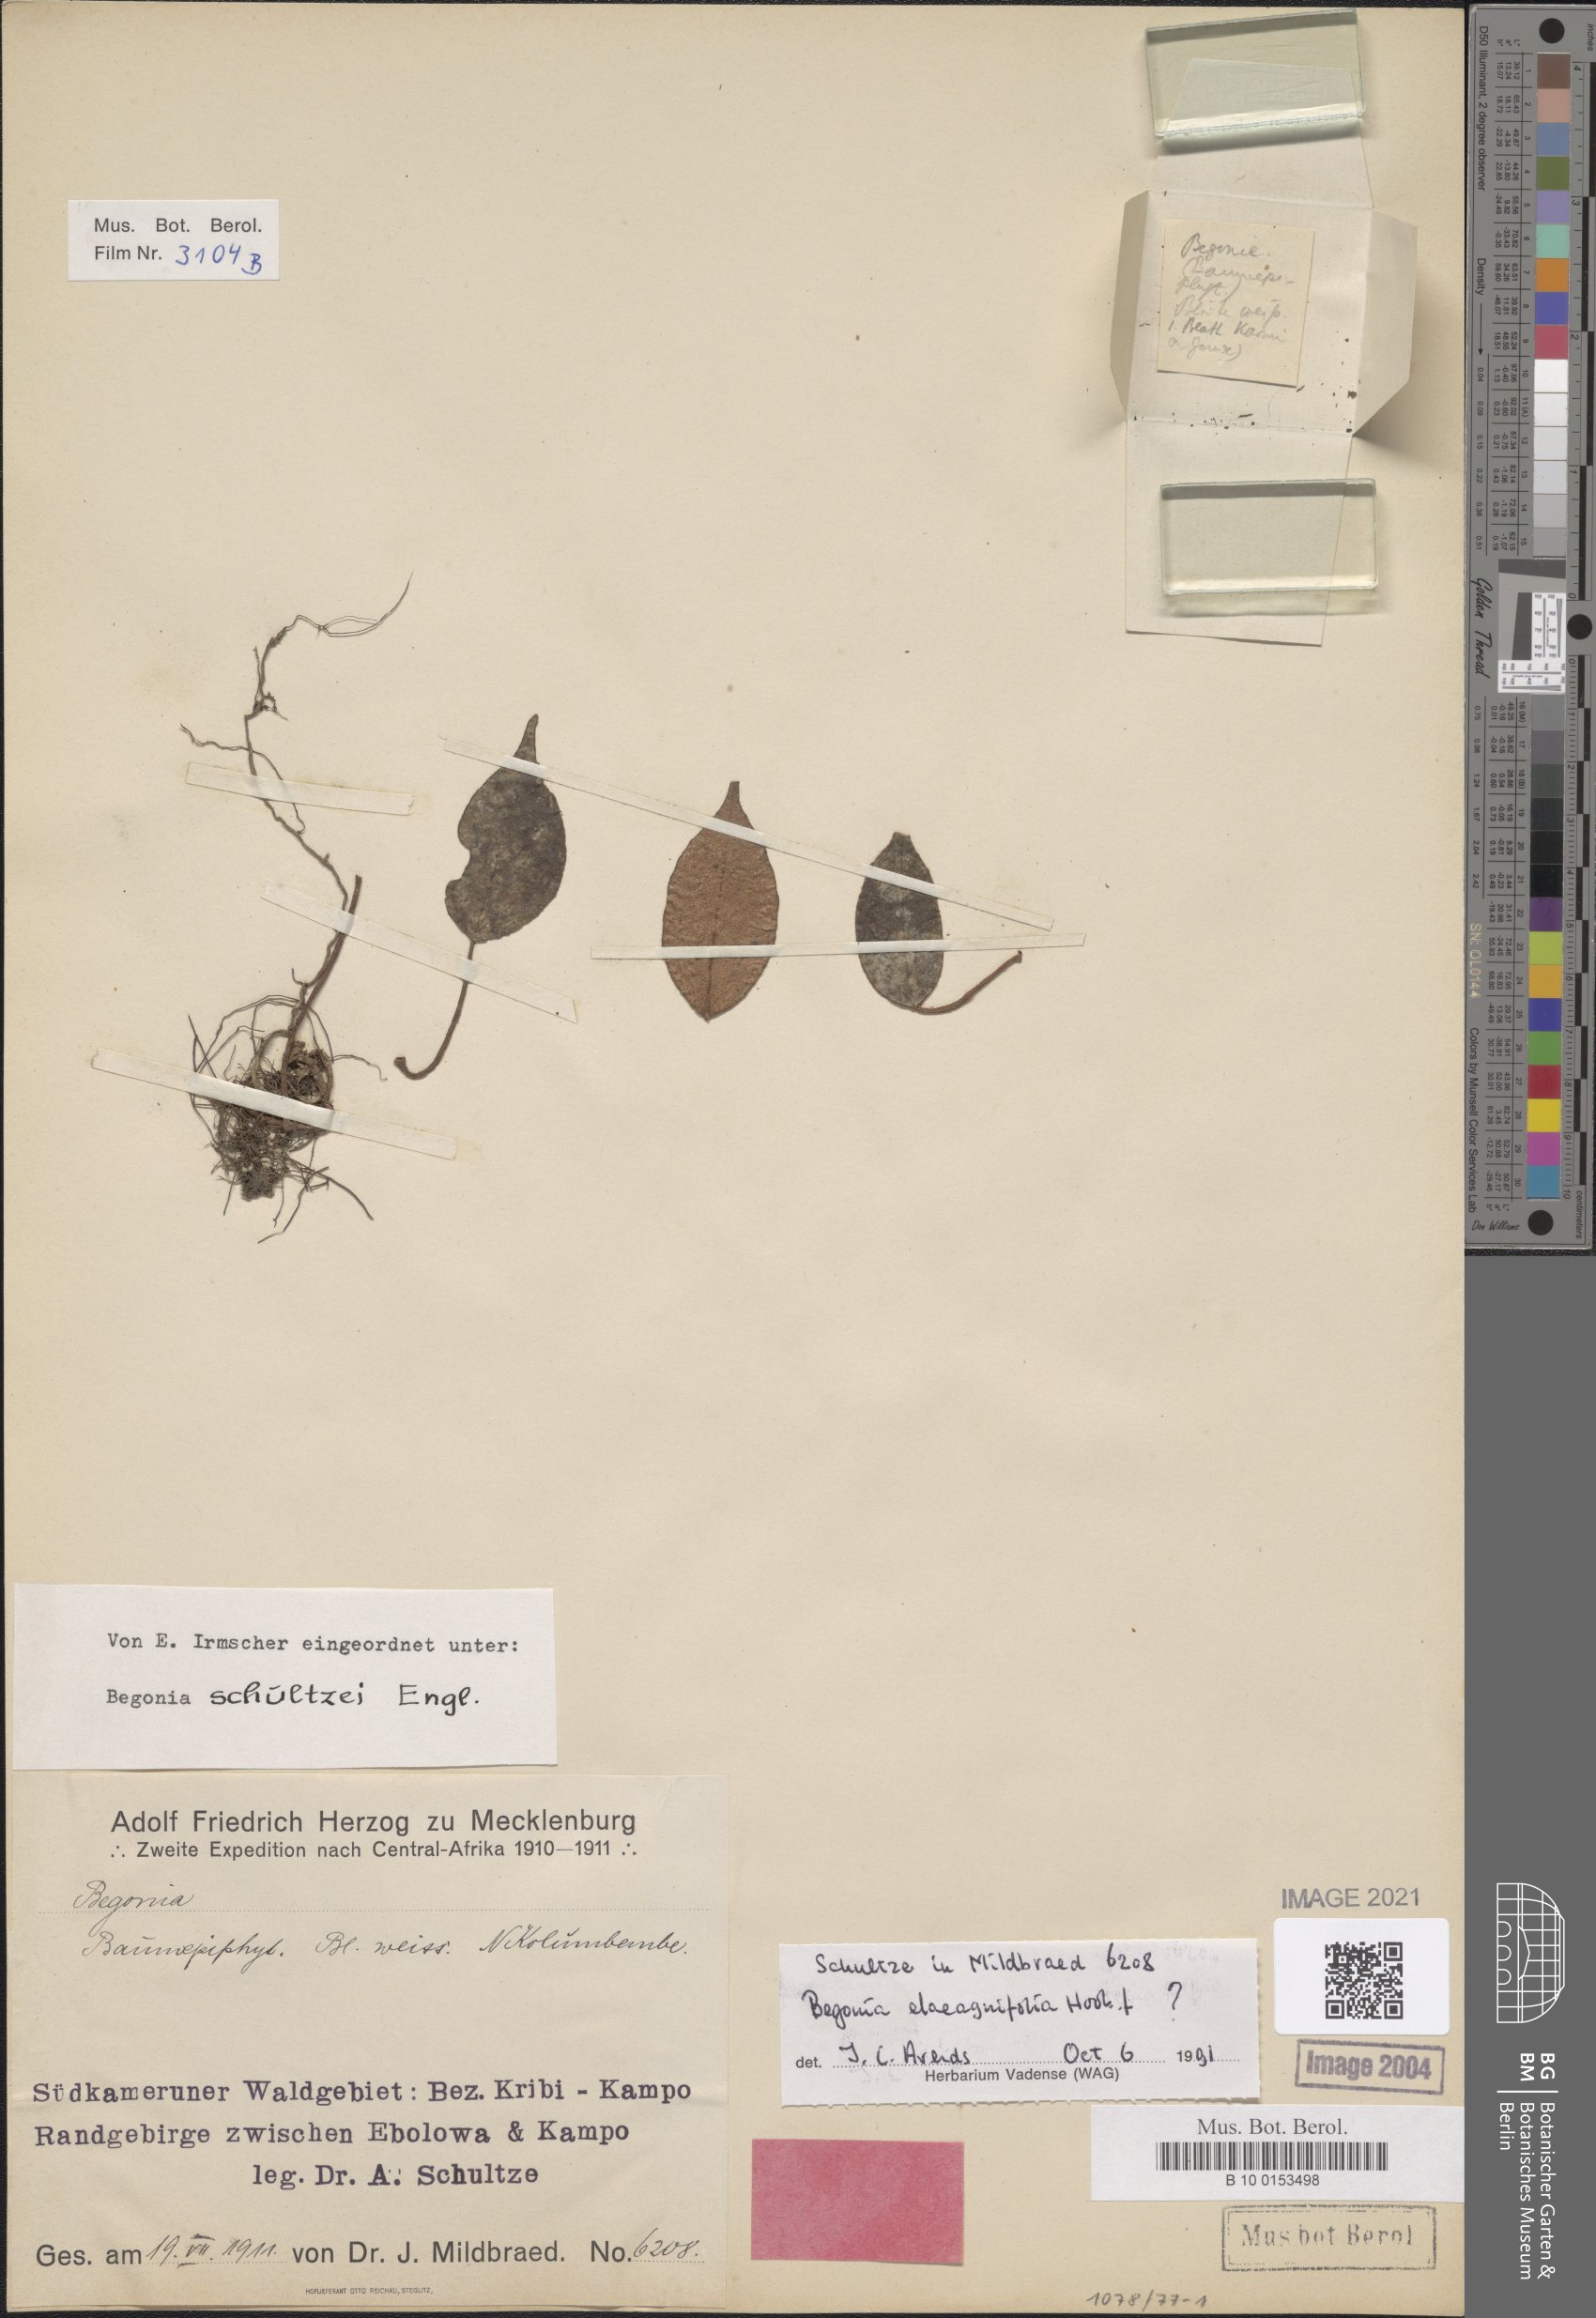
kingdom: Plantae
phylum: Tracheophyta
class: Magnoliopsida
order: Cucurbitales
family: Begoniaceae
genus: Begonia
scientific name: Begonia elaeagnifolia
